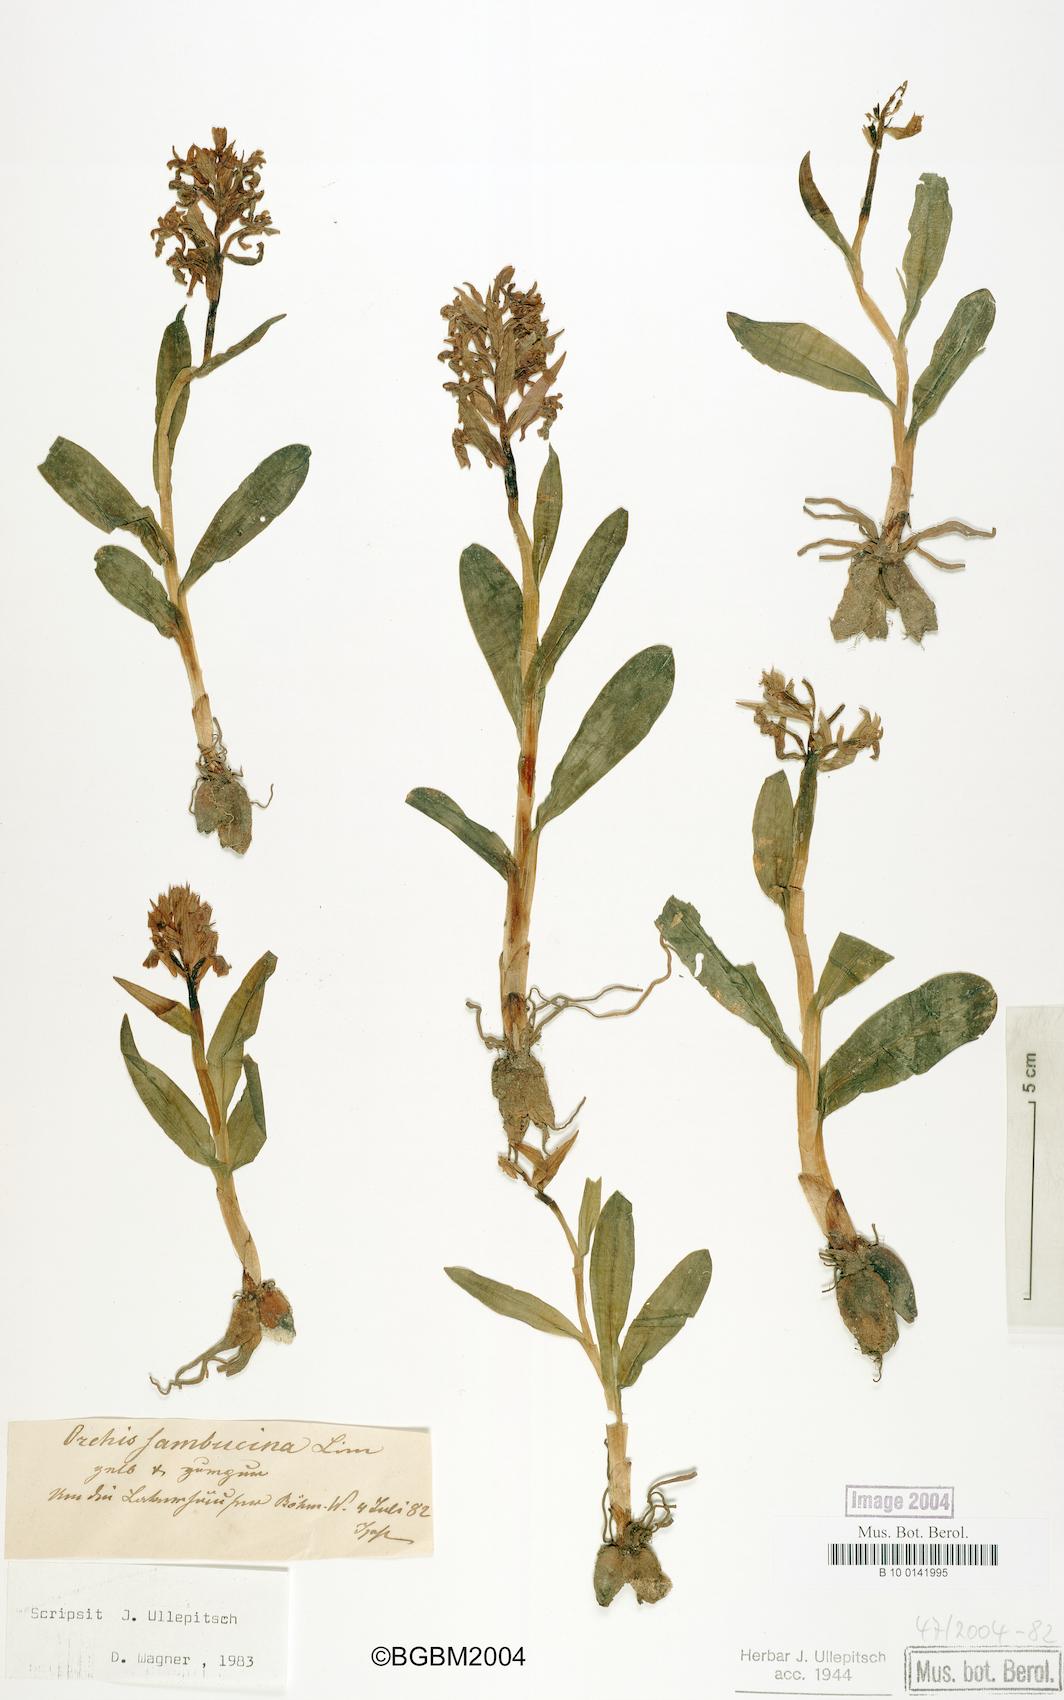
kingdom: Plantae
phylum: Tracheophyta
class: Liliopsida
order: Asparagales
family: Orchidaceae
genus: Dactylorhiza
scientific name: Dactylorhiza sambucina
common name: Elder-flowered orchid
